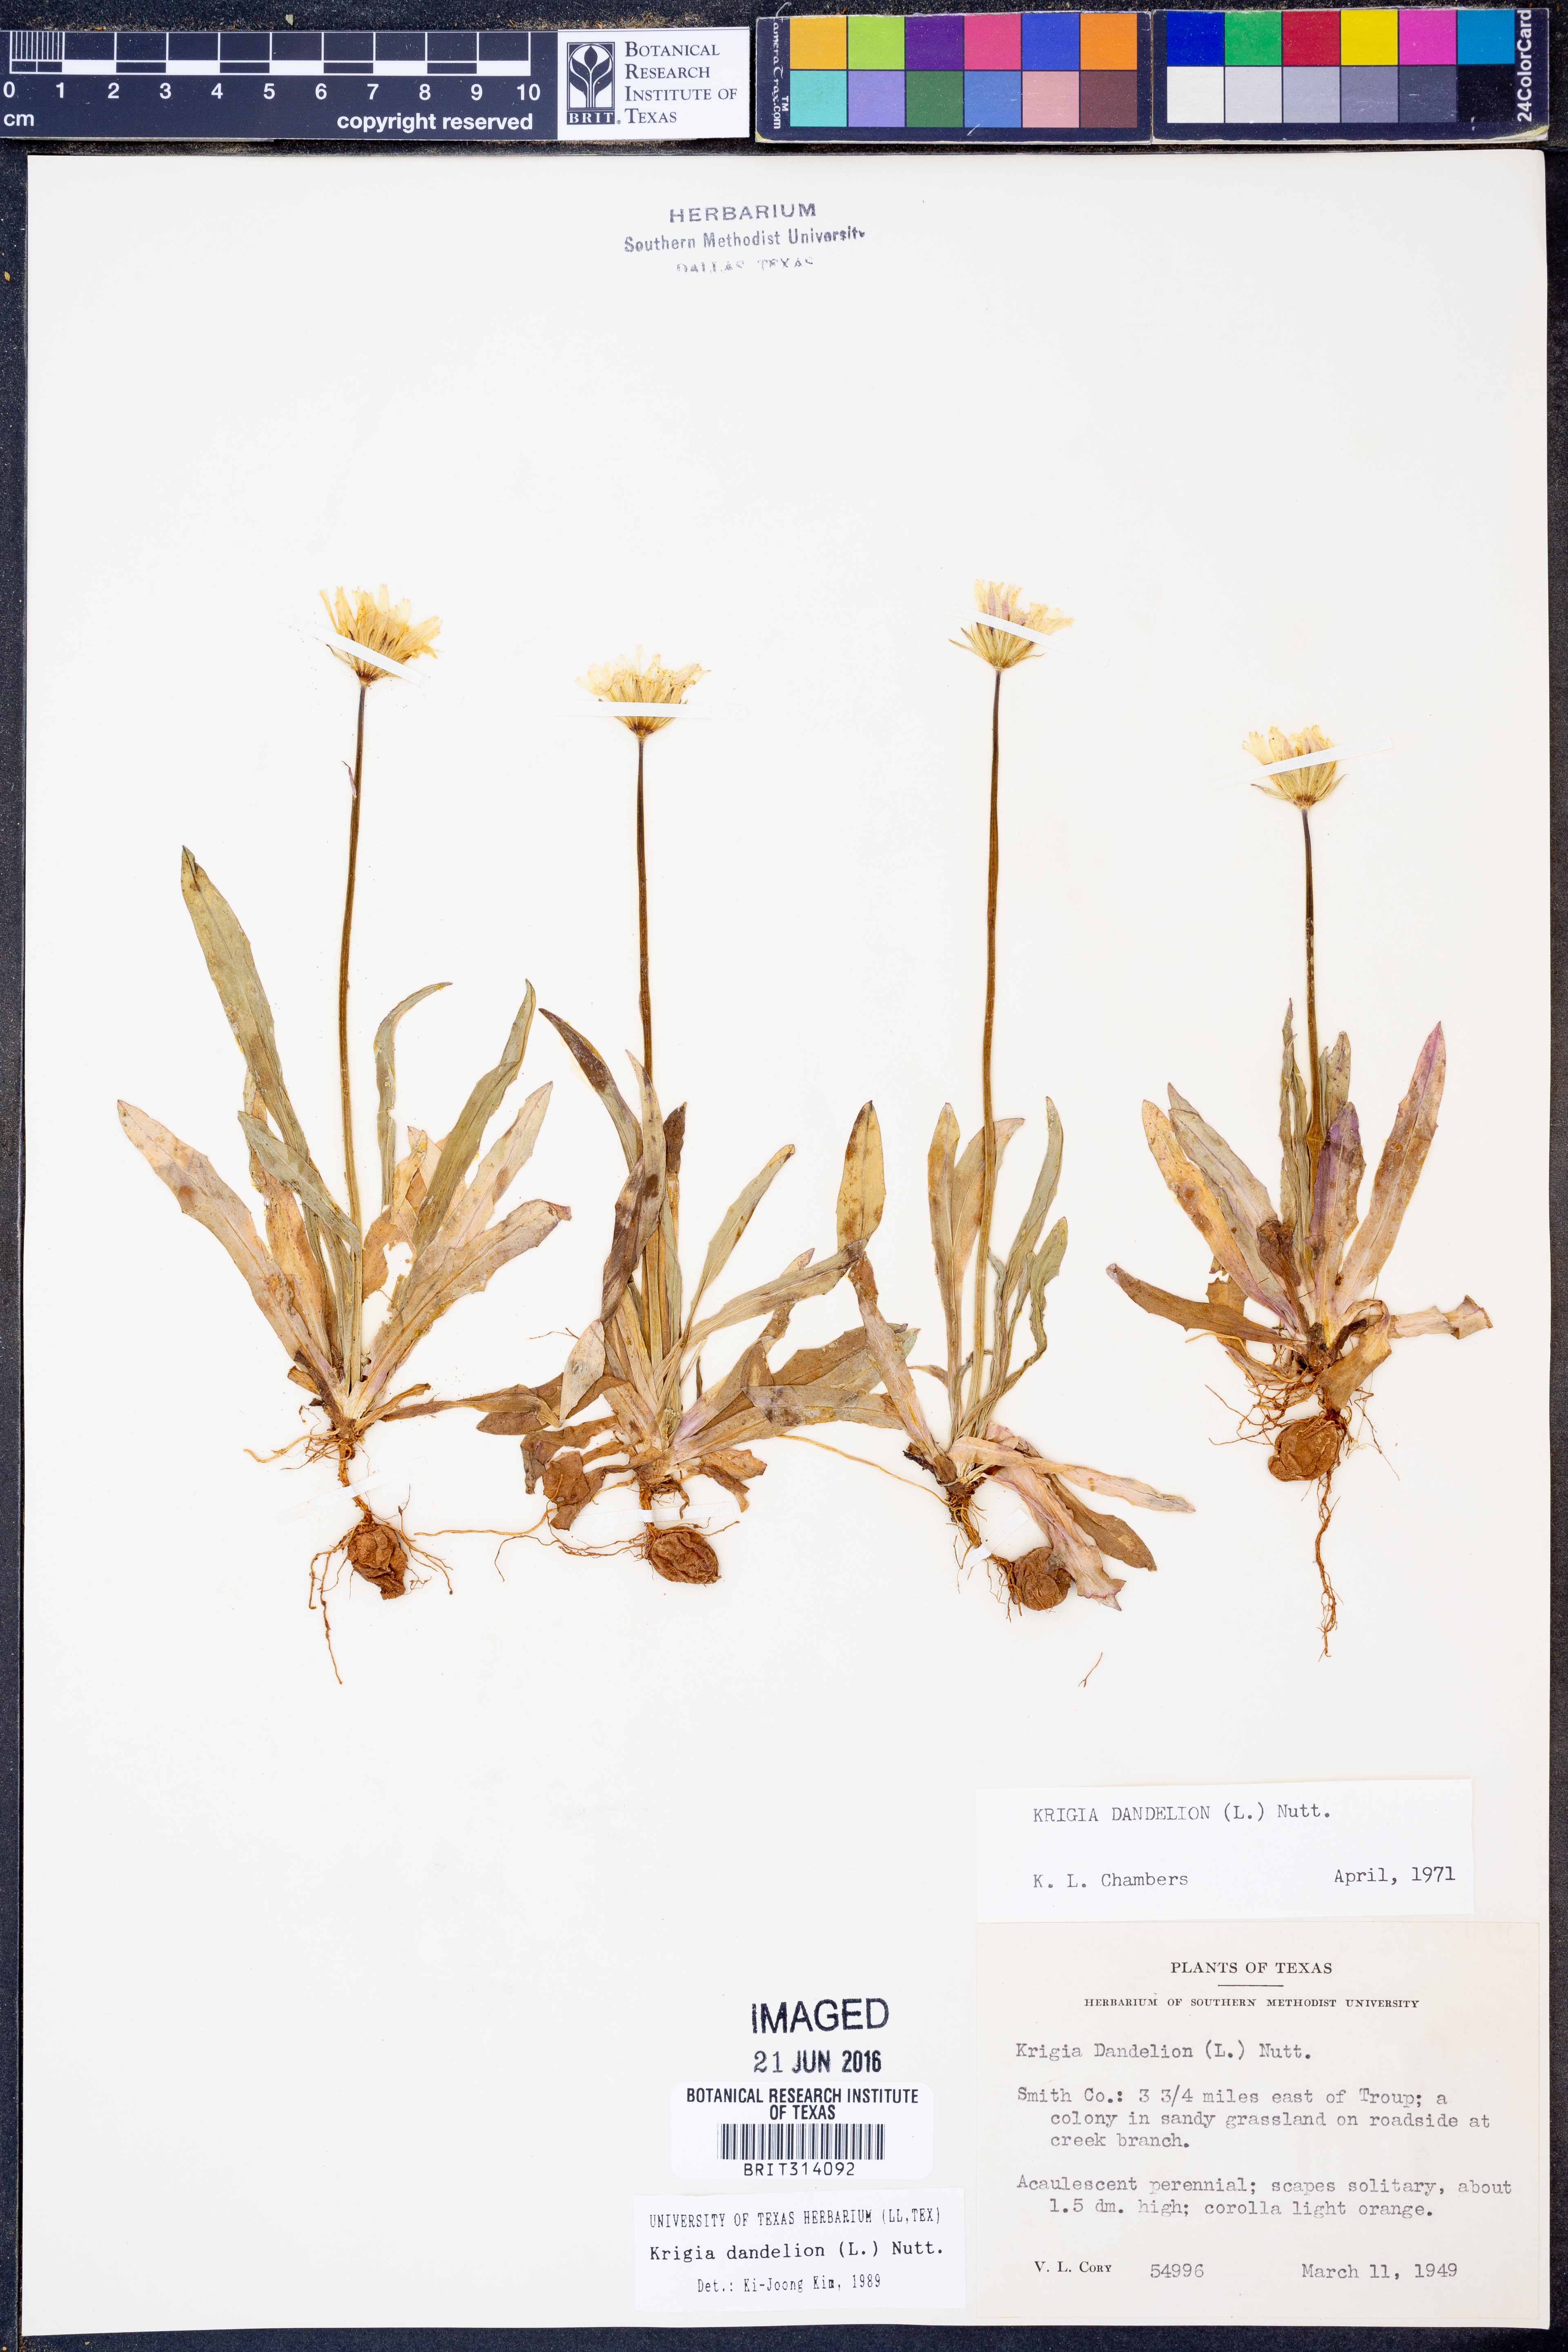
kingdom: Plantae
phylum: Tracheophyta
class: Magnoliopsida
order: Asterales
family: Asteraceae
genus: Krigia
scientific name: Krigia dandelion
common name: Colonial dwarf-dandelion
